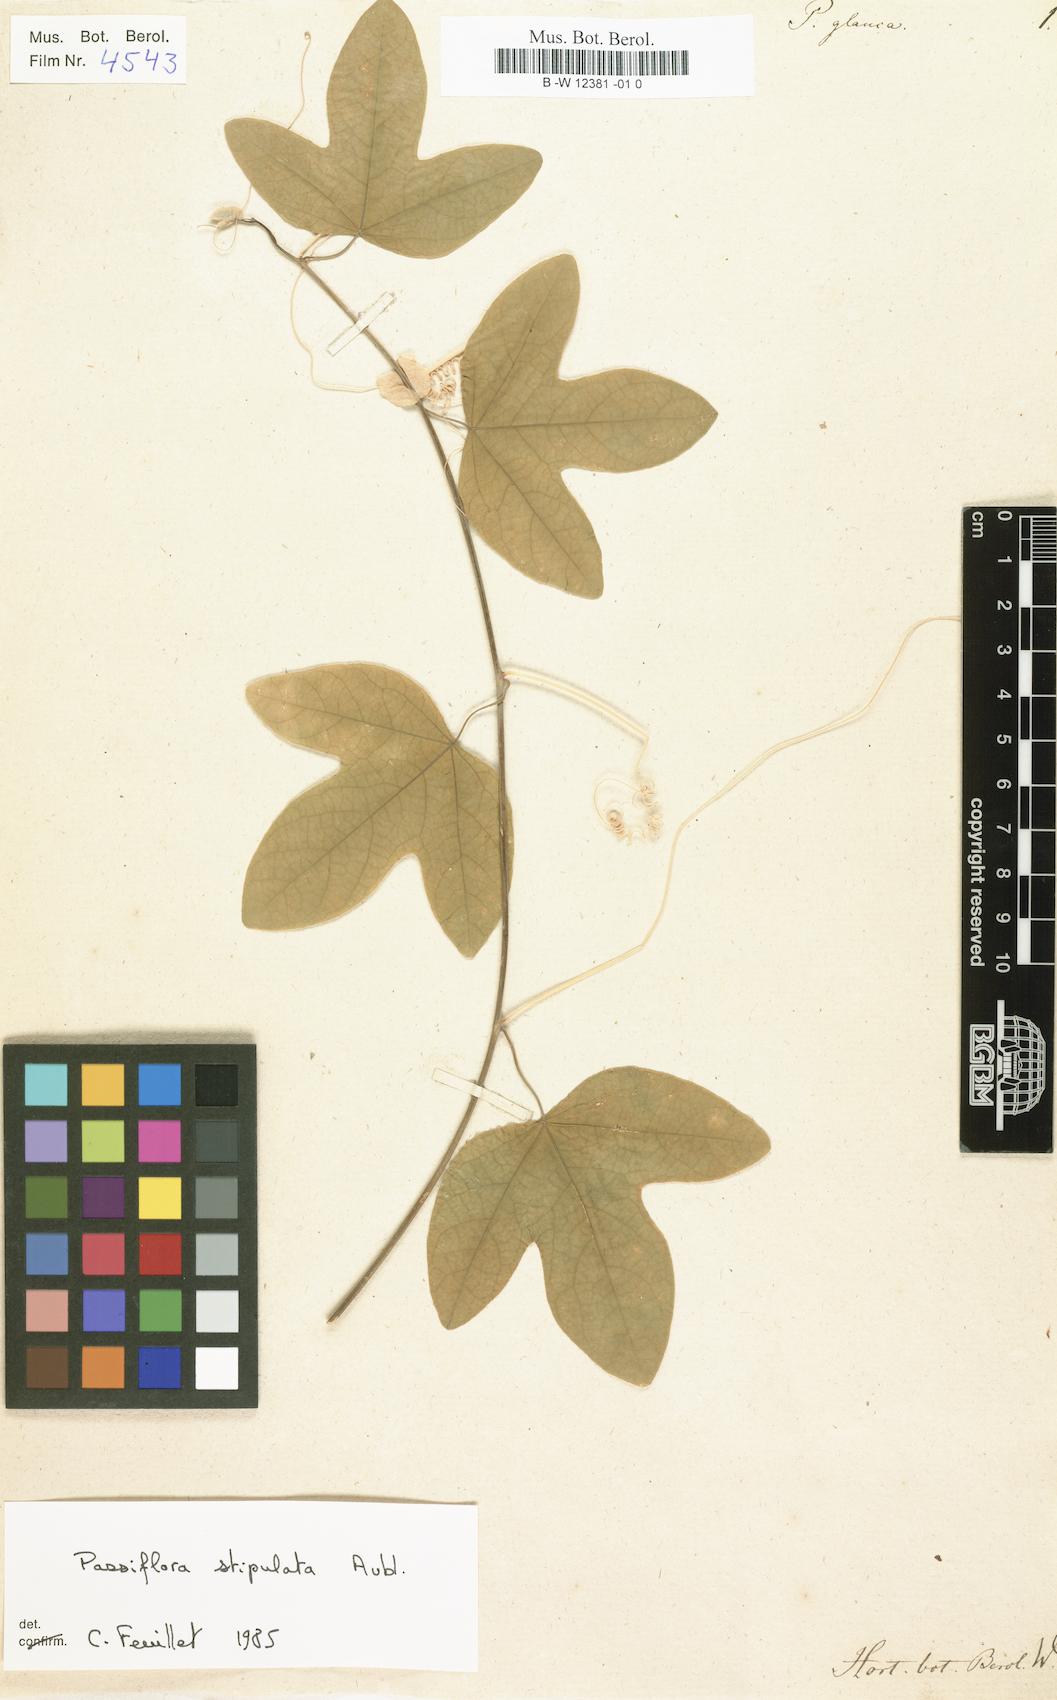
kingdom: Plantae
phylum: Tracheophyta
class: Magnoliopsida
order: Malpighiales
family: Passifloraceae
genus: Passiflora
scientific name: Passiflora
